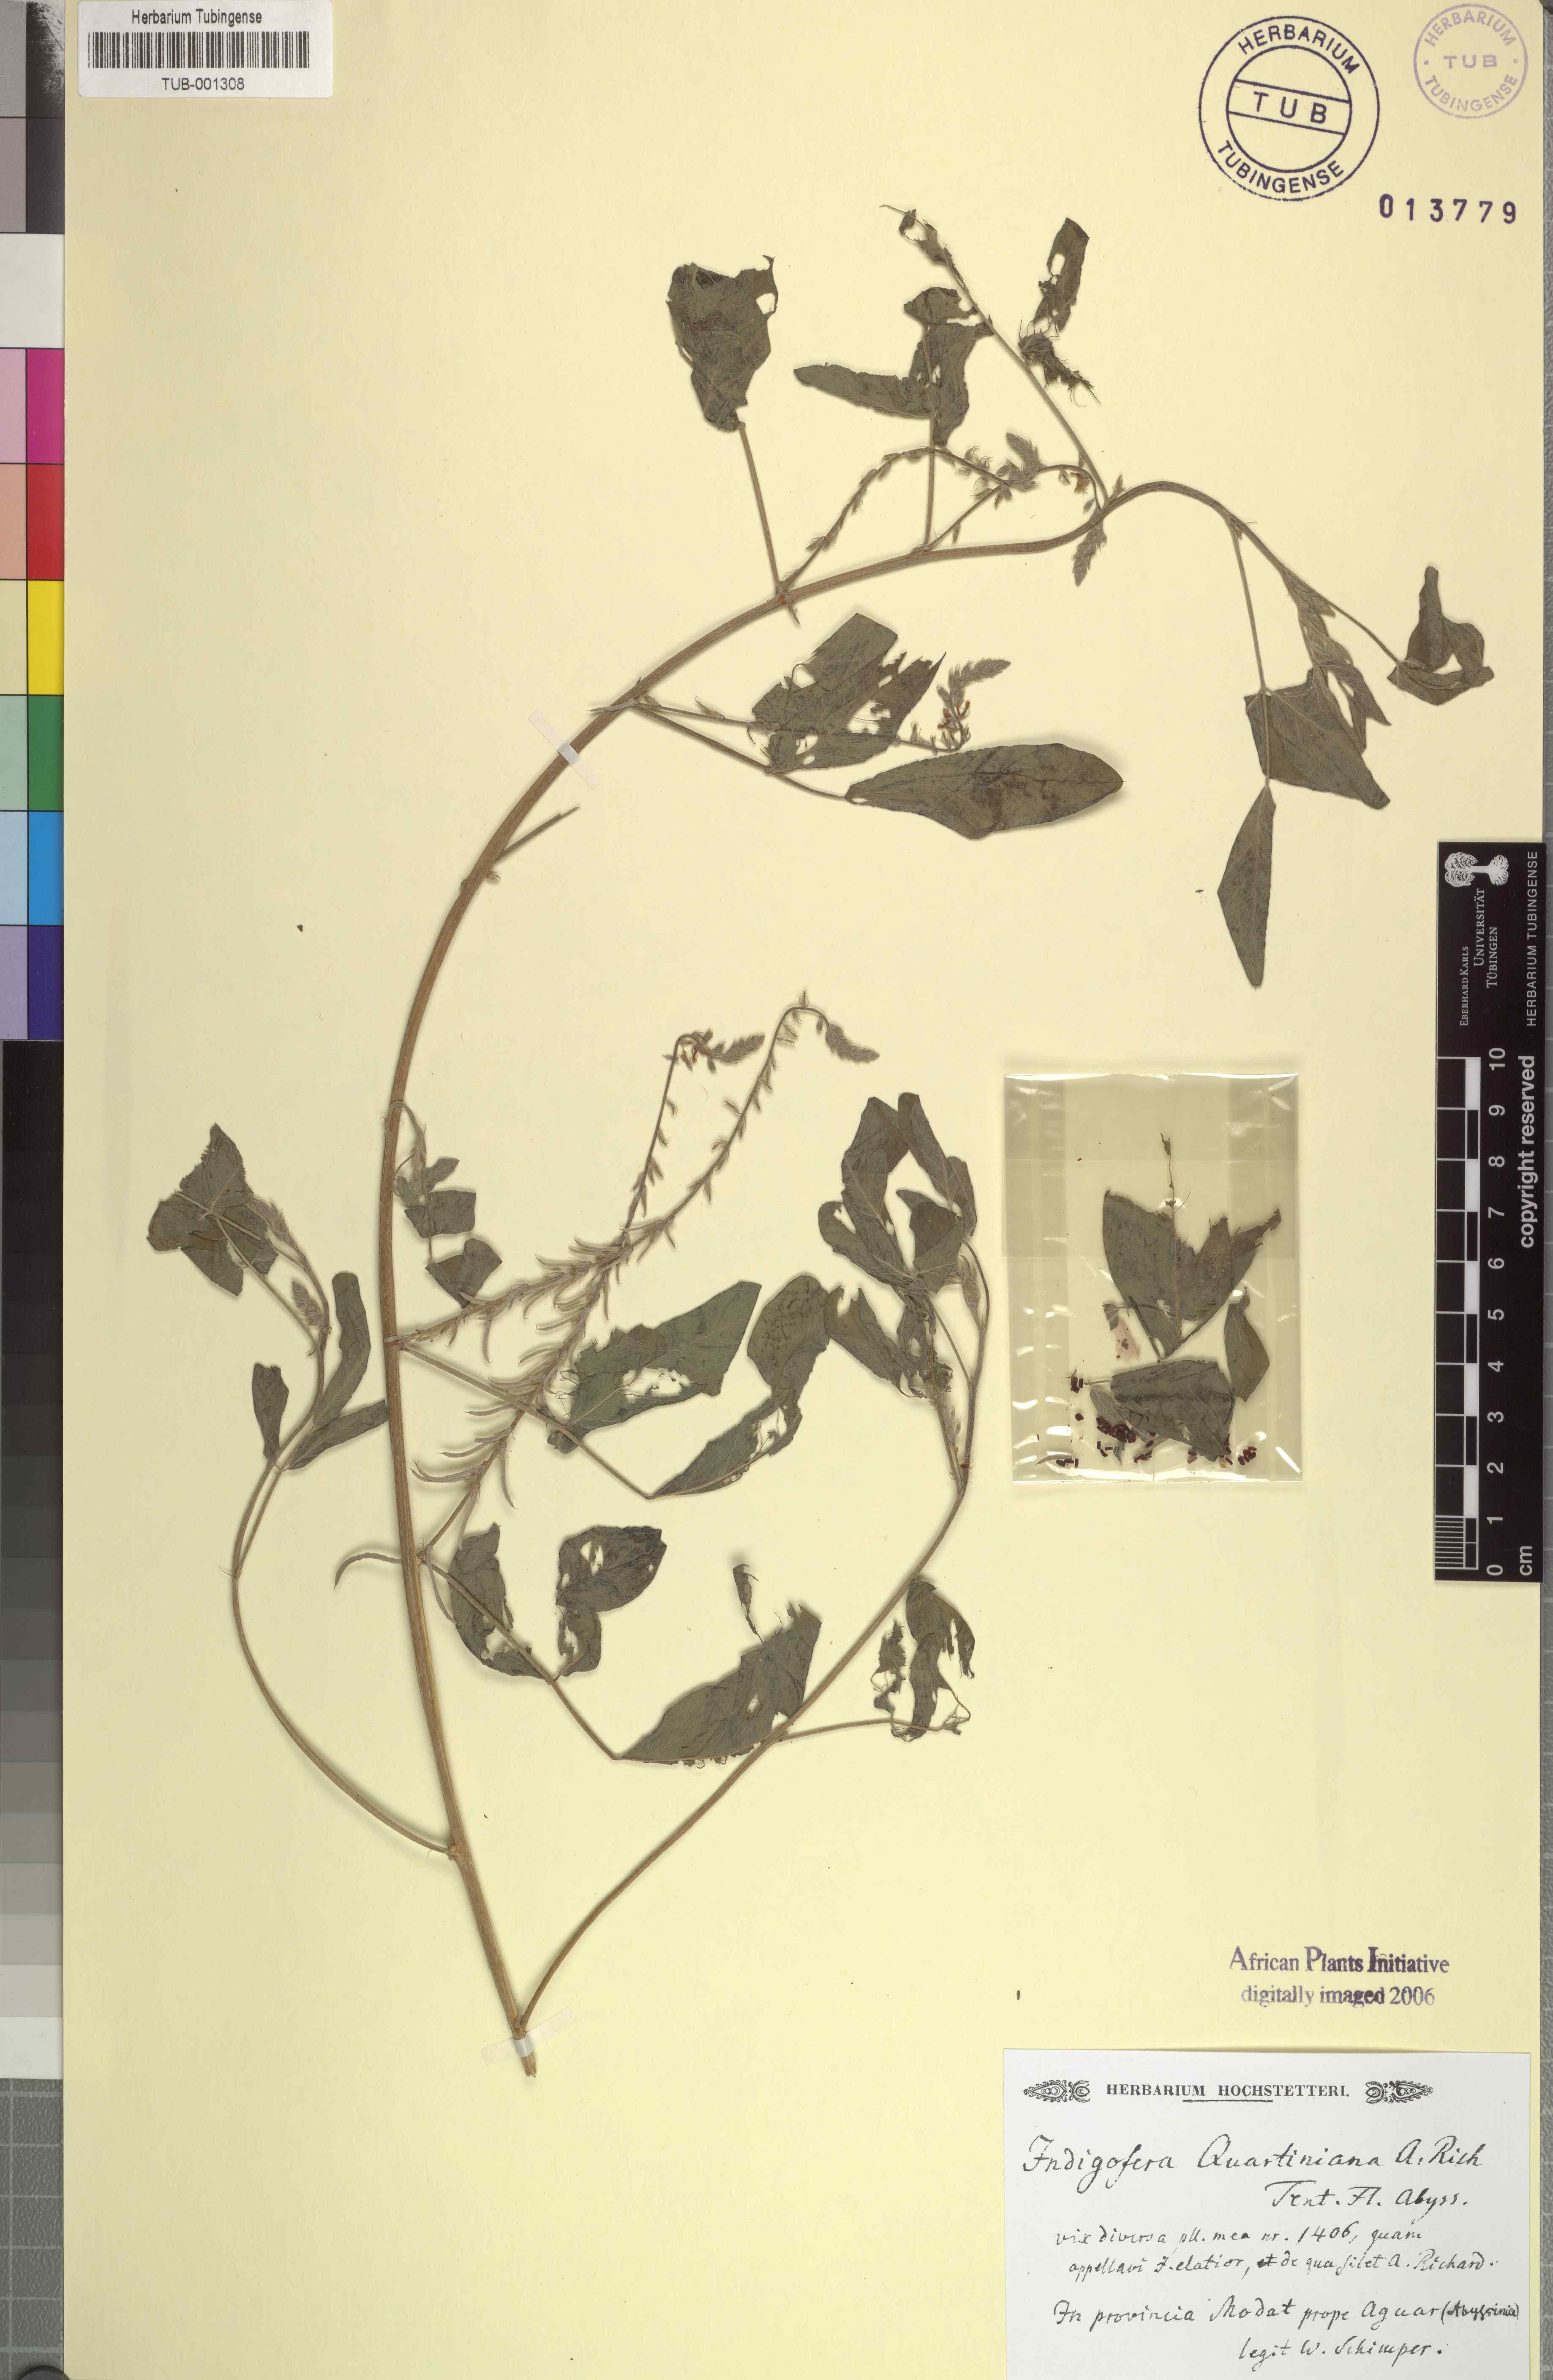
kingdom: Plantae
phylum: Tracheophyta
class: Magnoliopsida
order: Fabales
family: Fabaceae
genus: Indigofera
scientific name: Indigofera subulata
